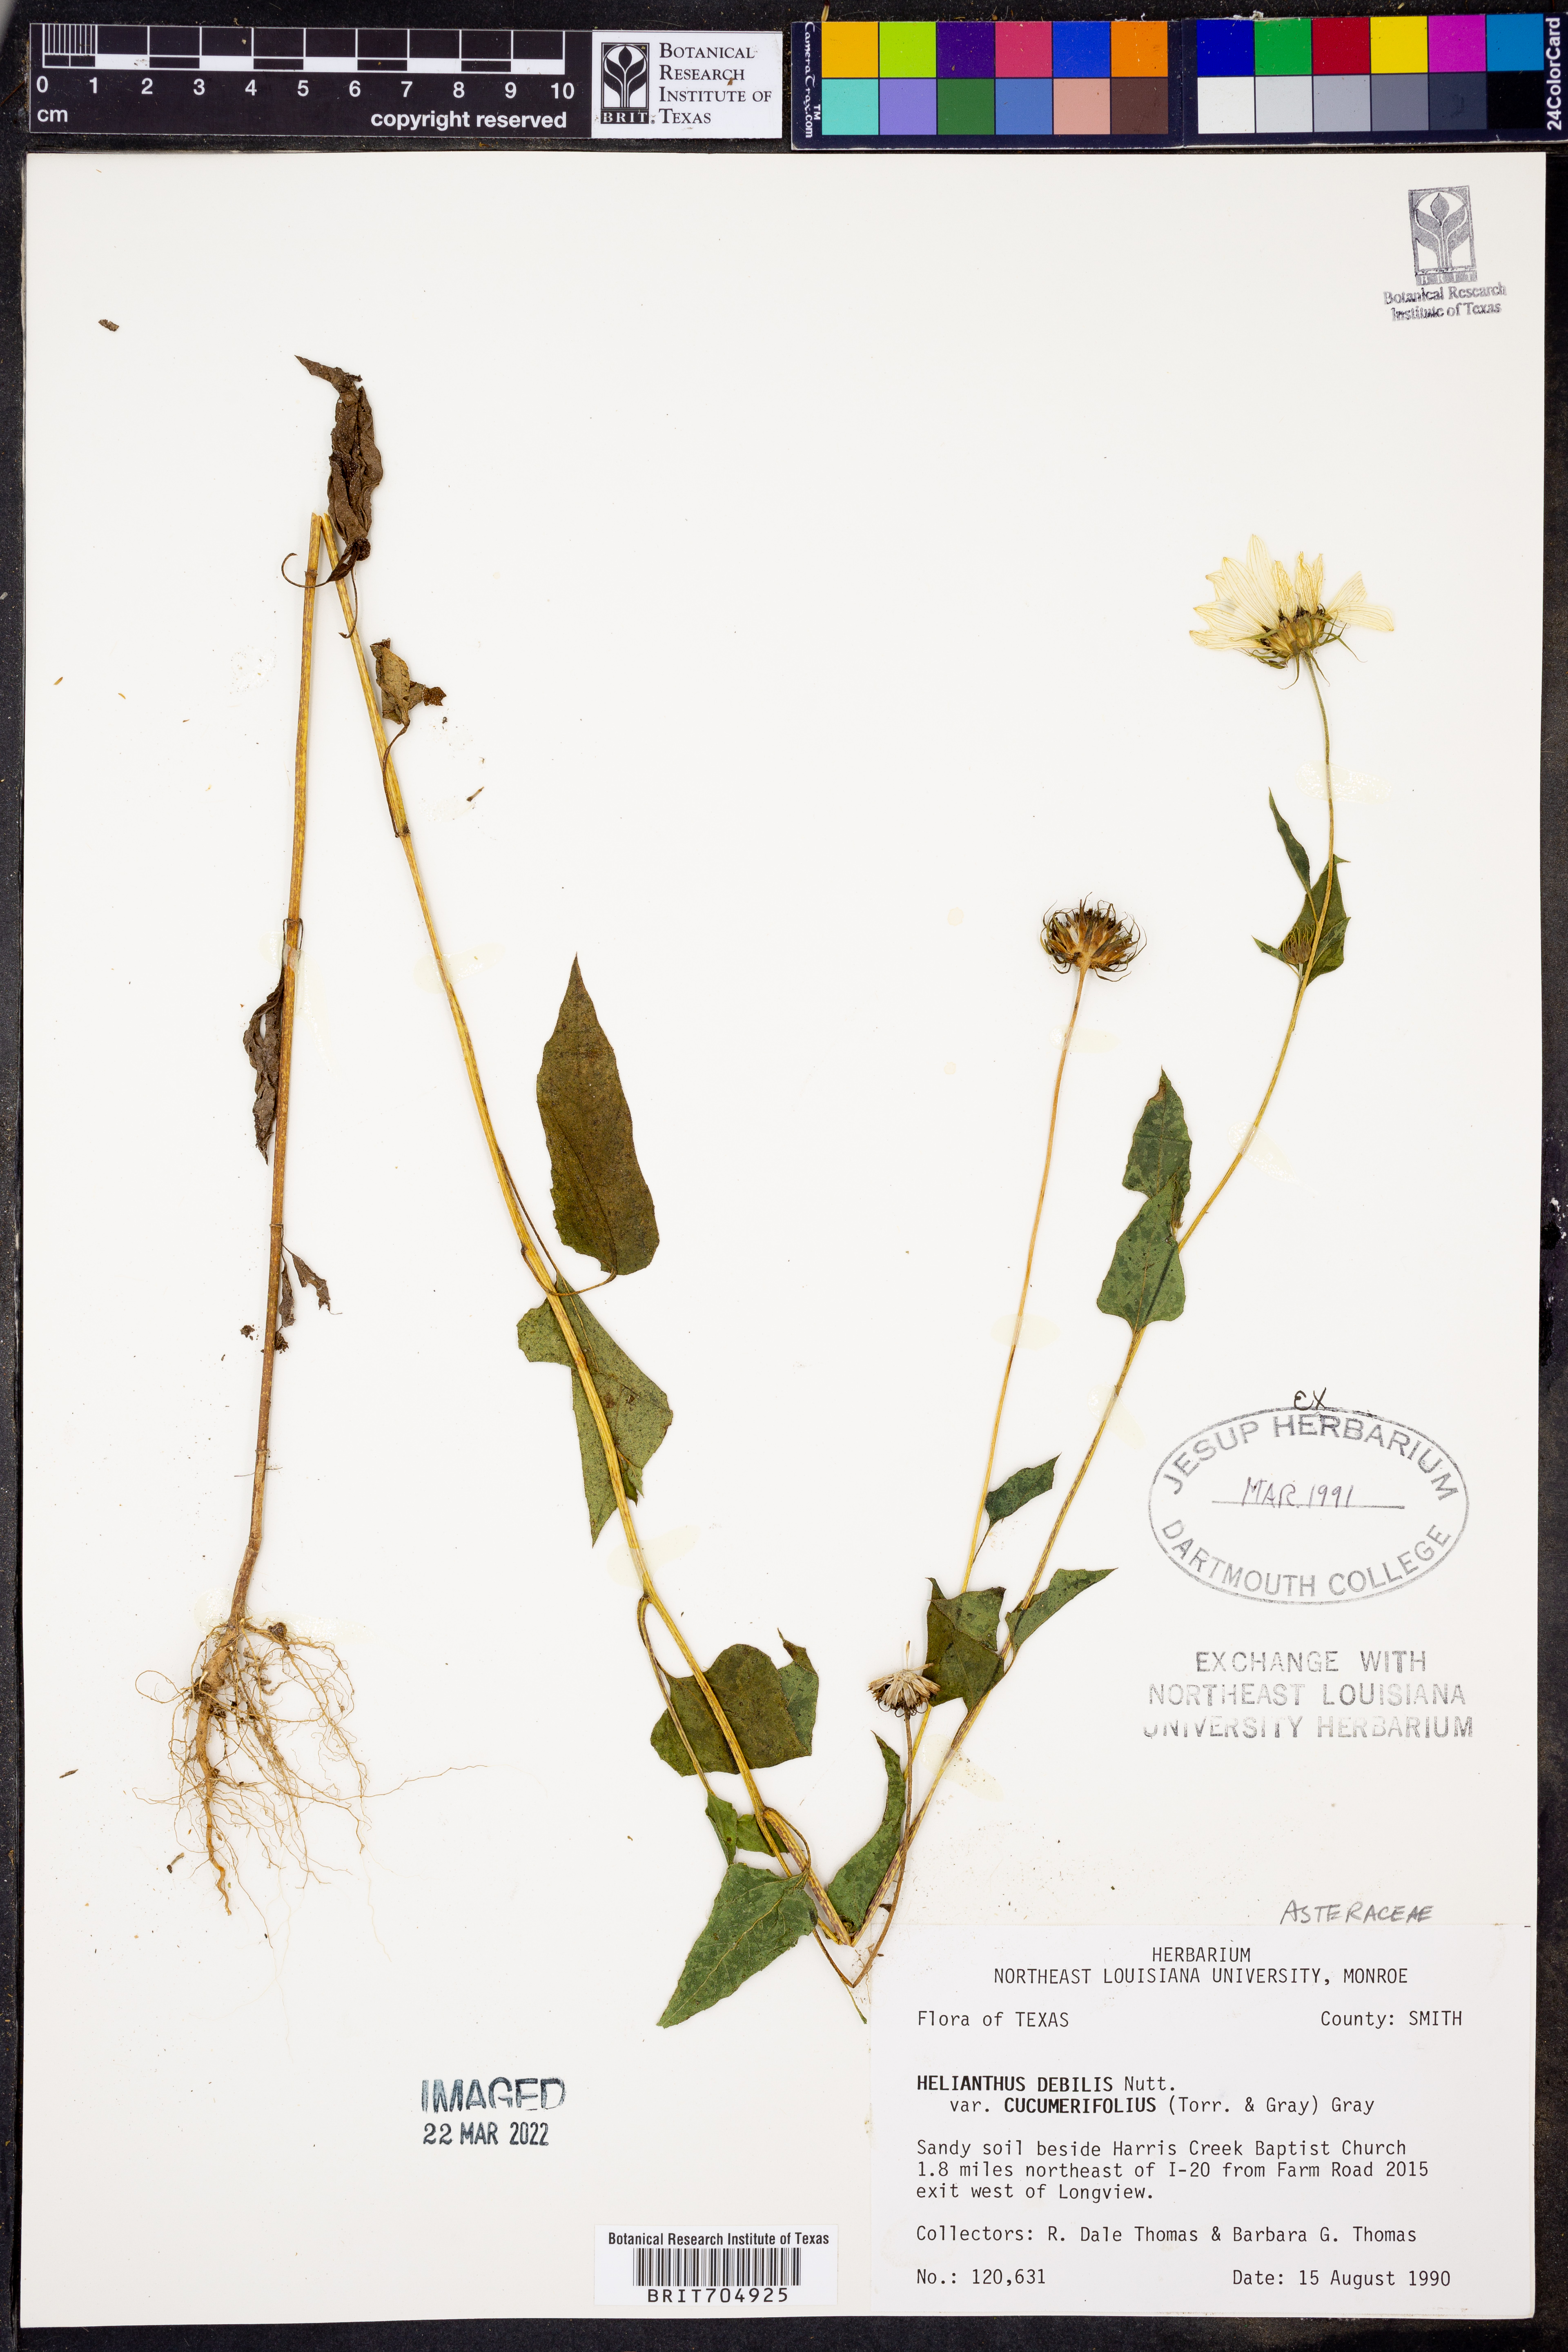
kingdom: Plantae
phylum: Tracheophyta
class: Magnoliopsida
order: Asterales
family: Asteraceae
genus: Helianthus
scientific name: Helianthus debilis
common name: Weak sunflower
